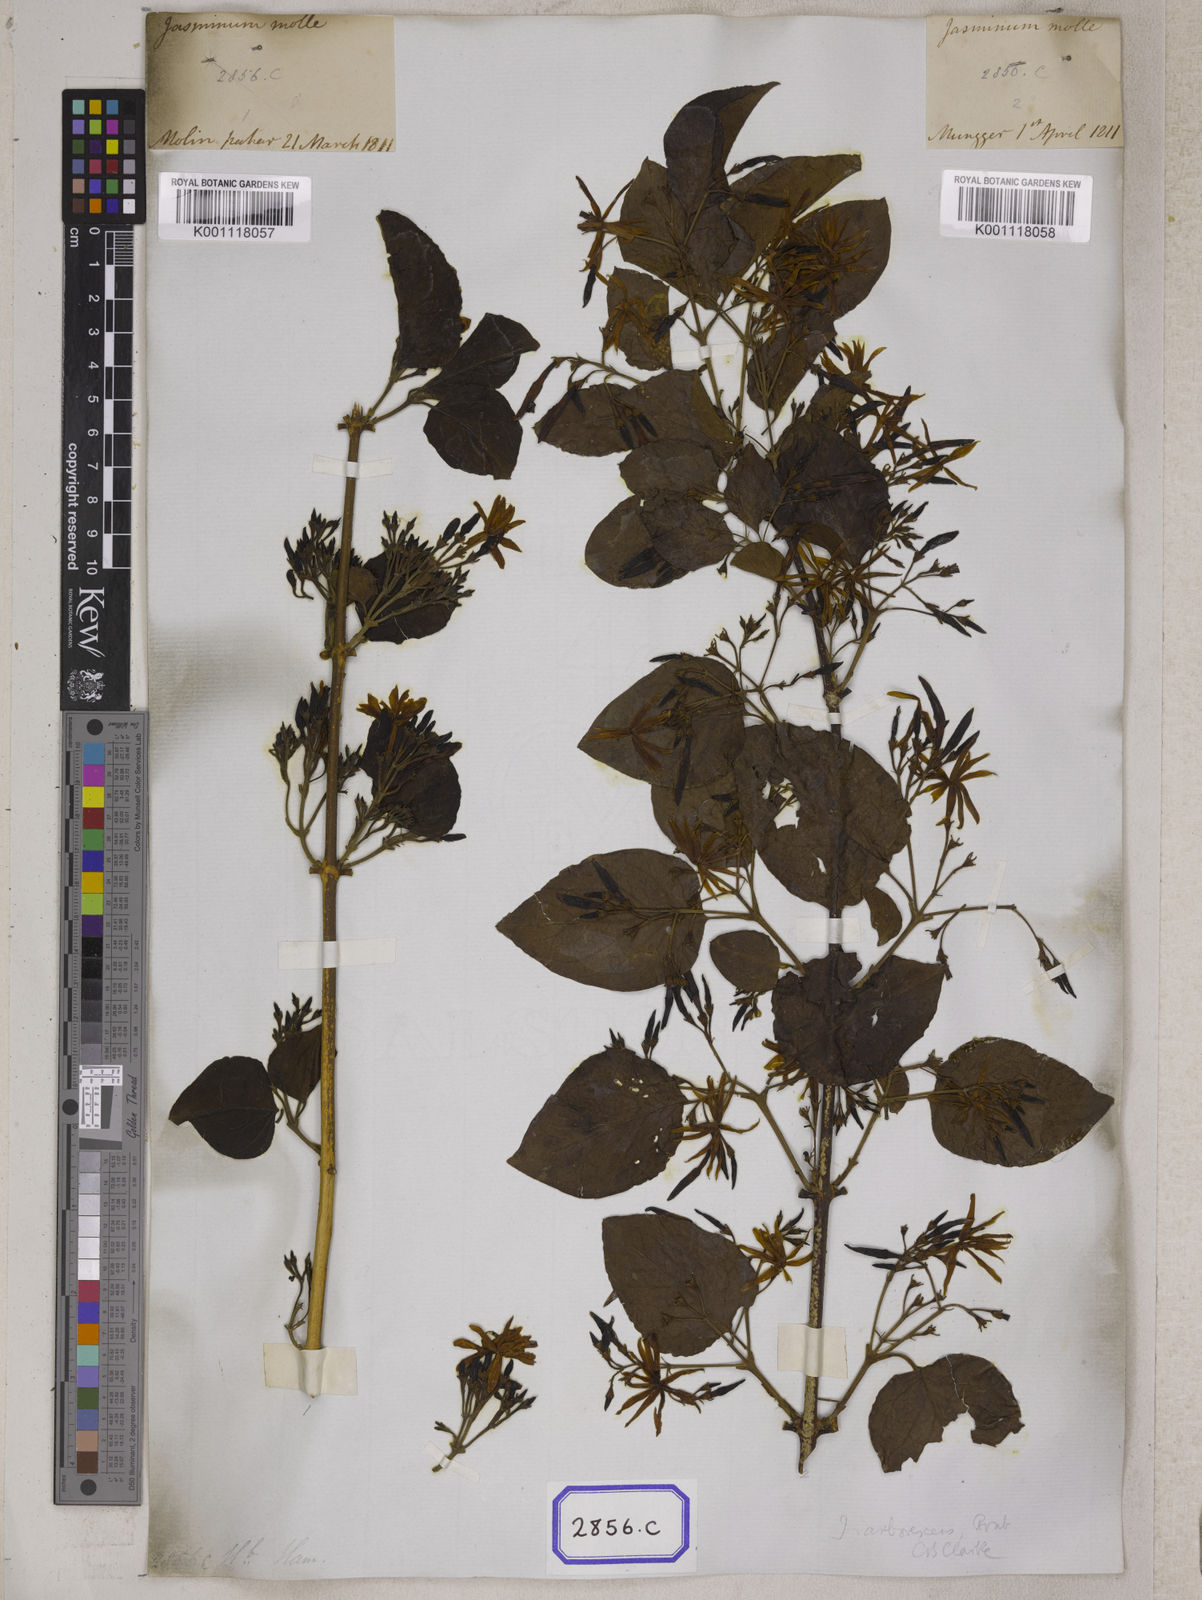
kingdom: Plantae
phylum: Tracheophyta
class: Magnoliopsida
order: Lamiales
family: Oleaceae
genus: Jasminum
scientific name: Jasminum arborescens
